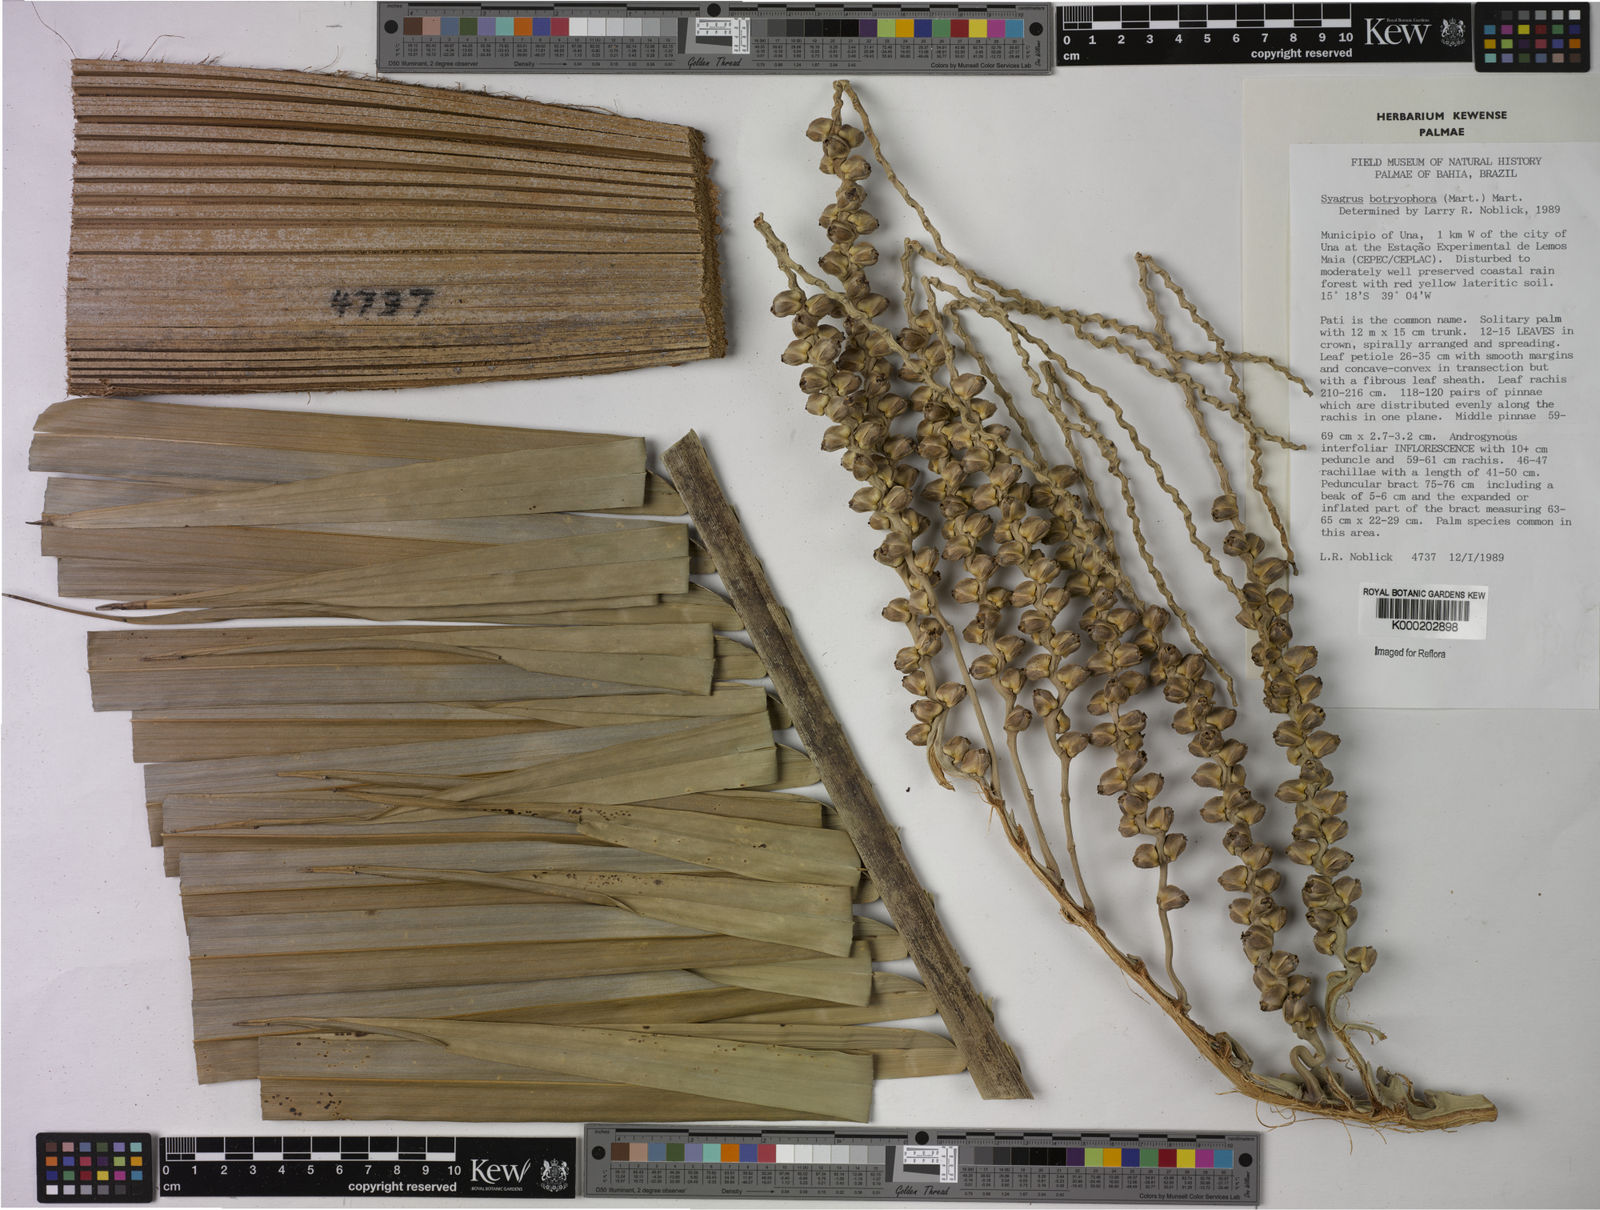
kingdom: Plantae
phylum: Tracheophyta
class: Liliopsida
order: Arecales
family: Arecaceae
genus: Syagrus
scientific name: Syagrus botryophora
